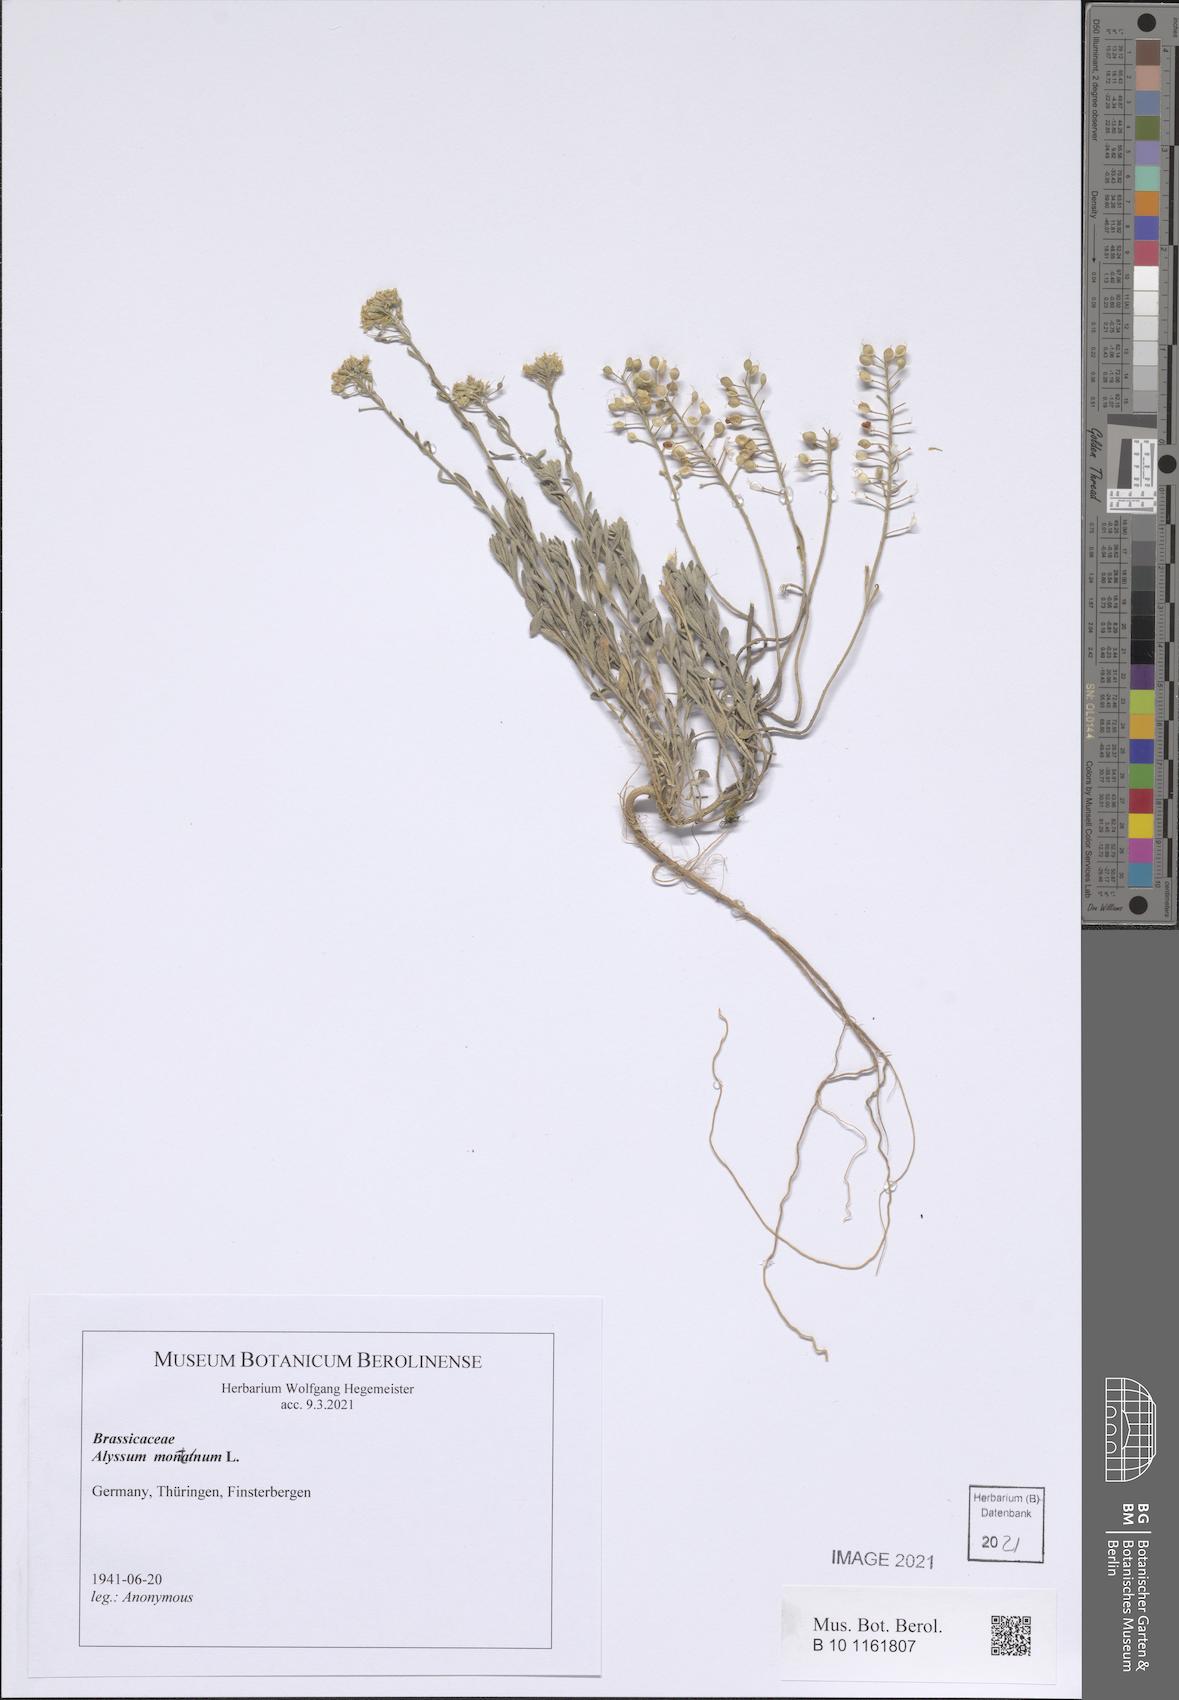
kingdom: Plantae
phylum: Tracheophyta
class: Magnoliopsida
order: Brassicales
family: Brassicaceae
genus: Alyssum
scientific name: Alyssum montanum
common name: Mountain alison
